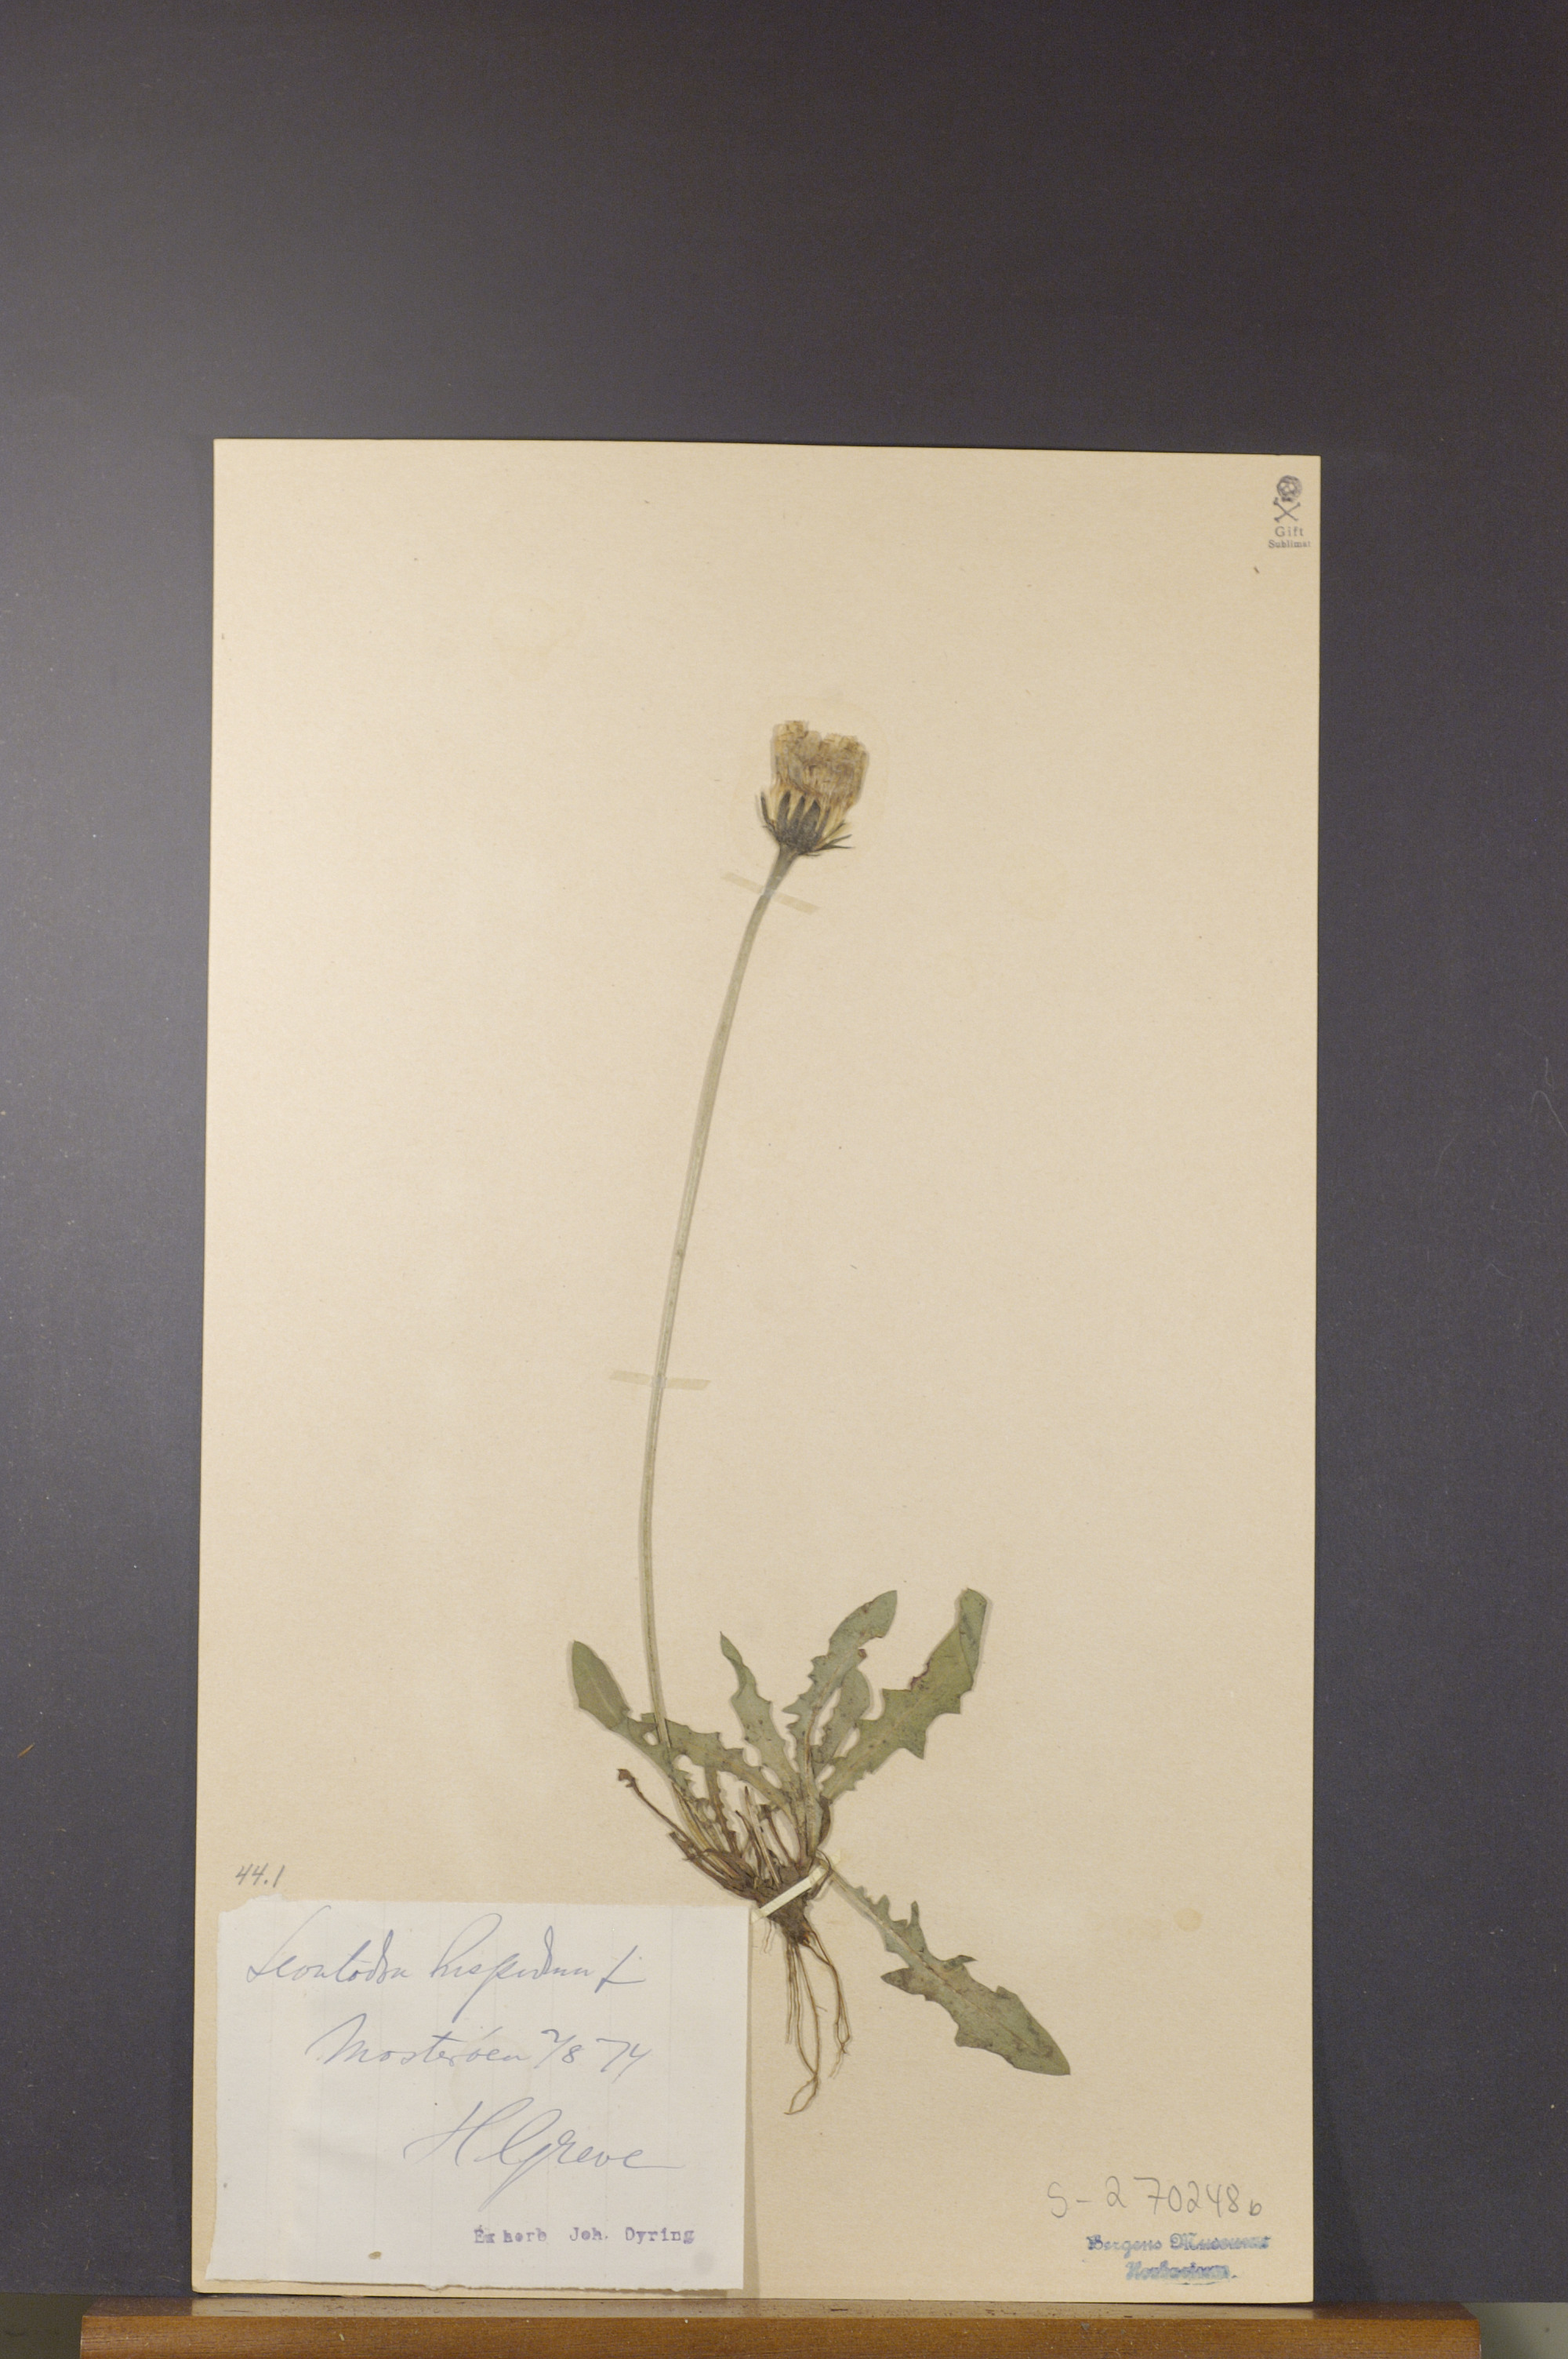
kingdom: Plantae
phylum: Tracheophyta
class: Magnoliopsida
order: Asterales
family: Asteraceae
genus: Leontodon
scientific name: Leontodon hispidus
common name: Rough hawkbit
